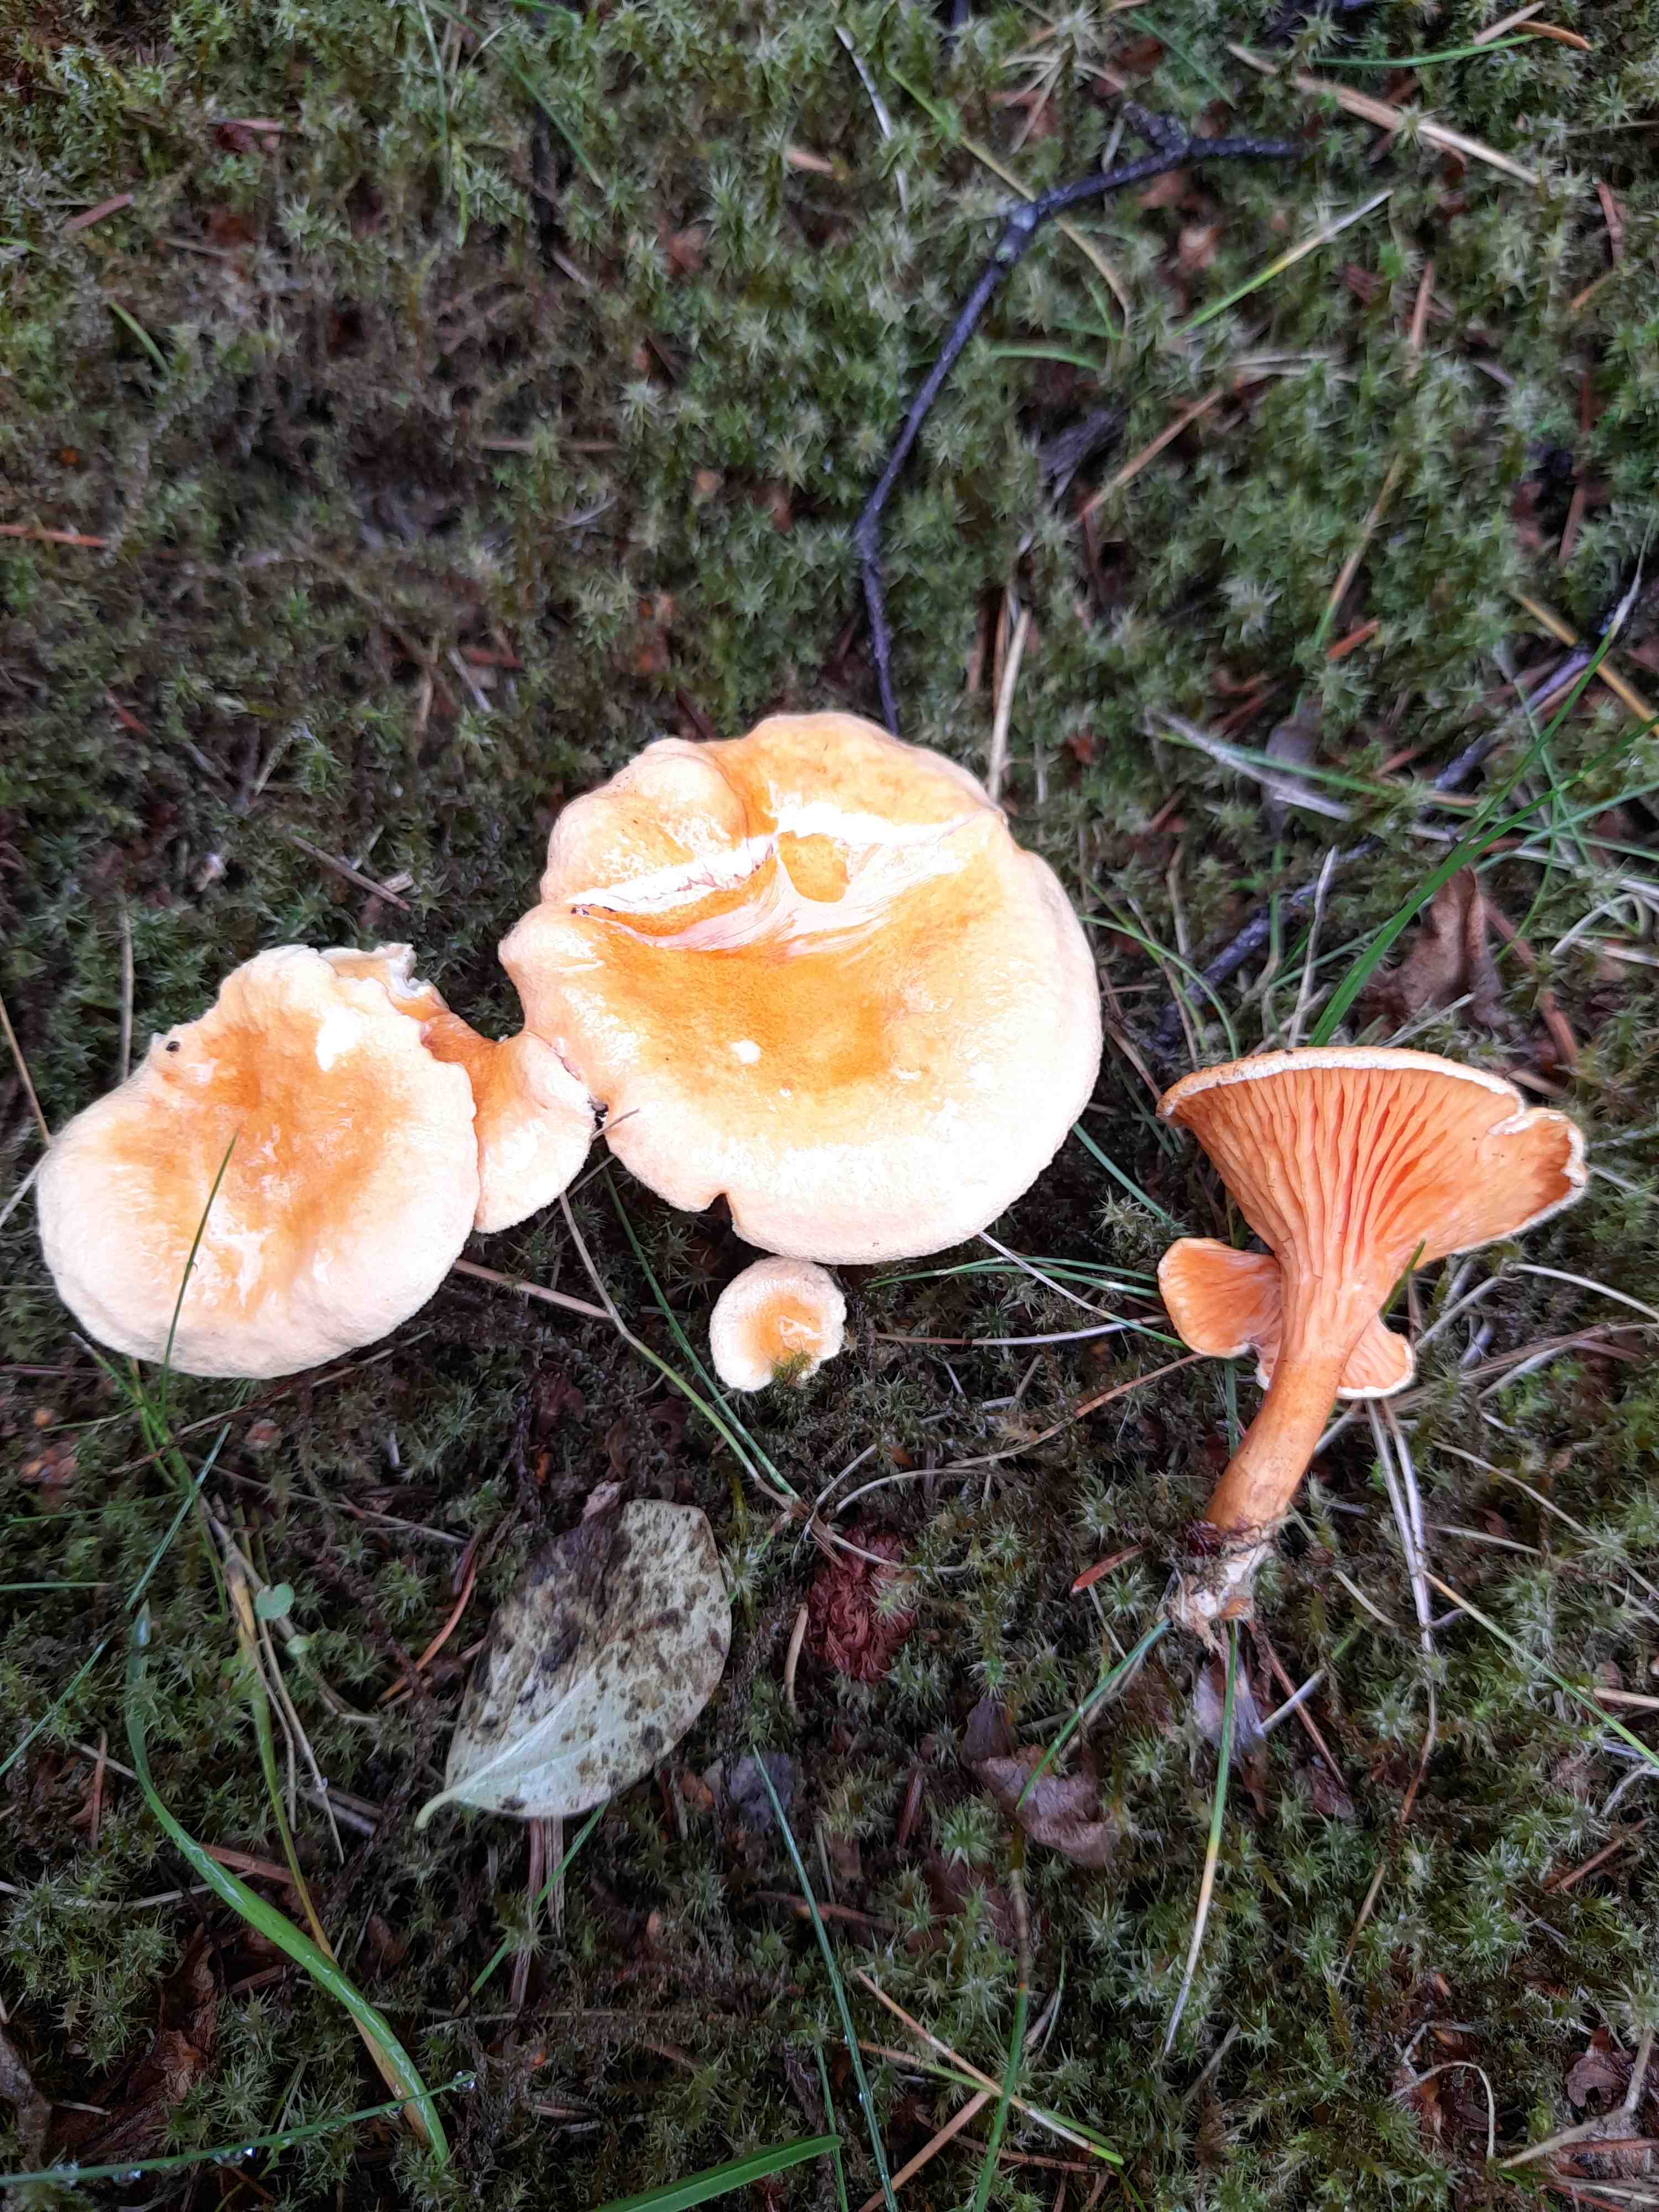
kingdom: Fungi
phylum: Basidiomycota
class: Agaricomycetes
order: Boletales
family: Hygrophoropsidaceae
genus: Hygrophoropsis
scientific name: Hygrophoropsis aurantiaca
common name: almindelig orangekantarel
